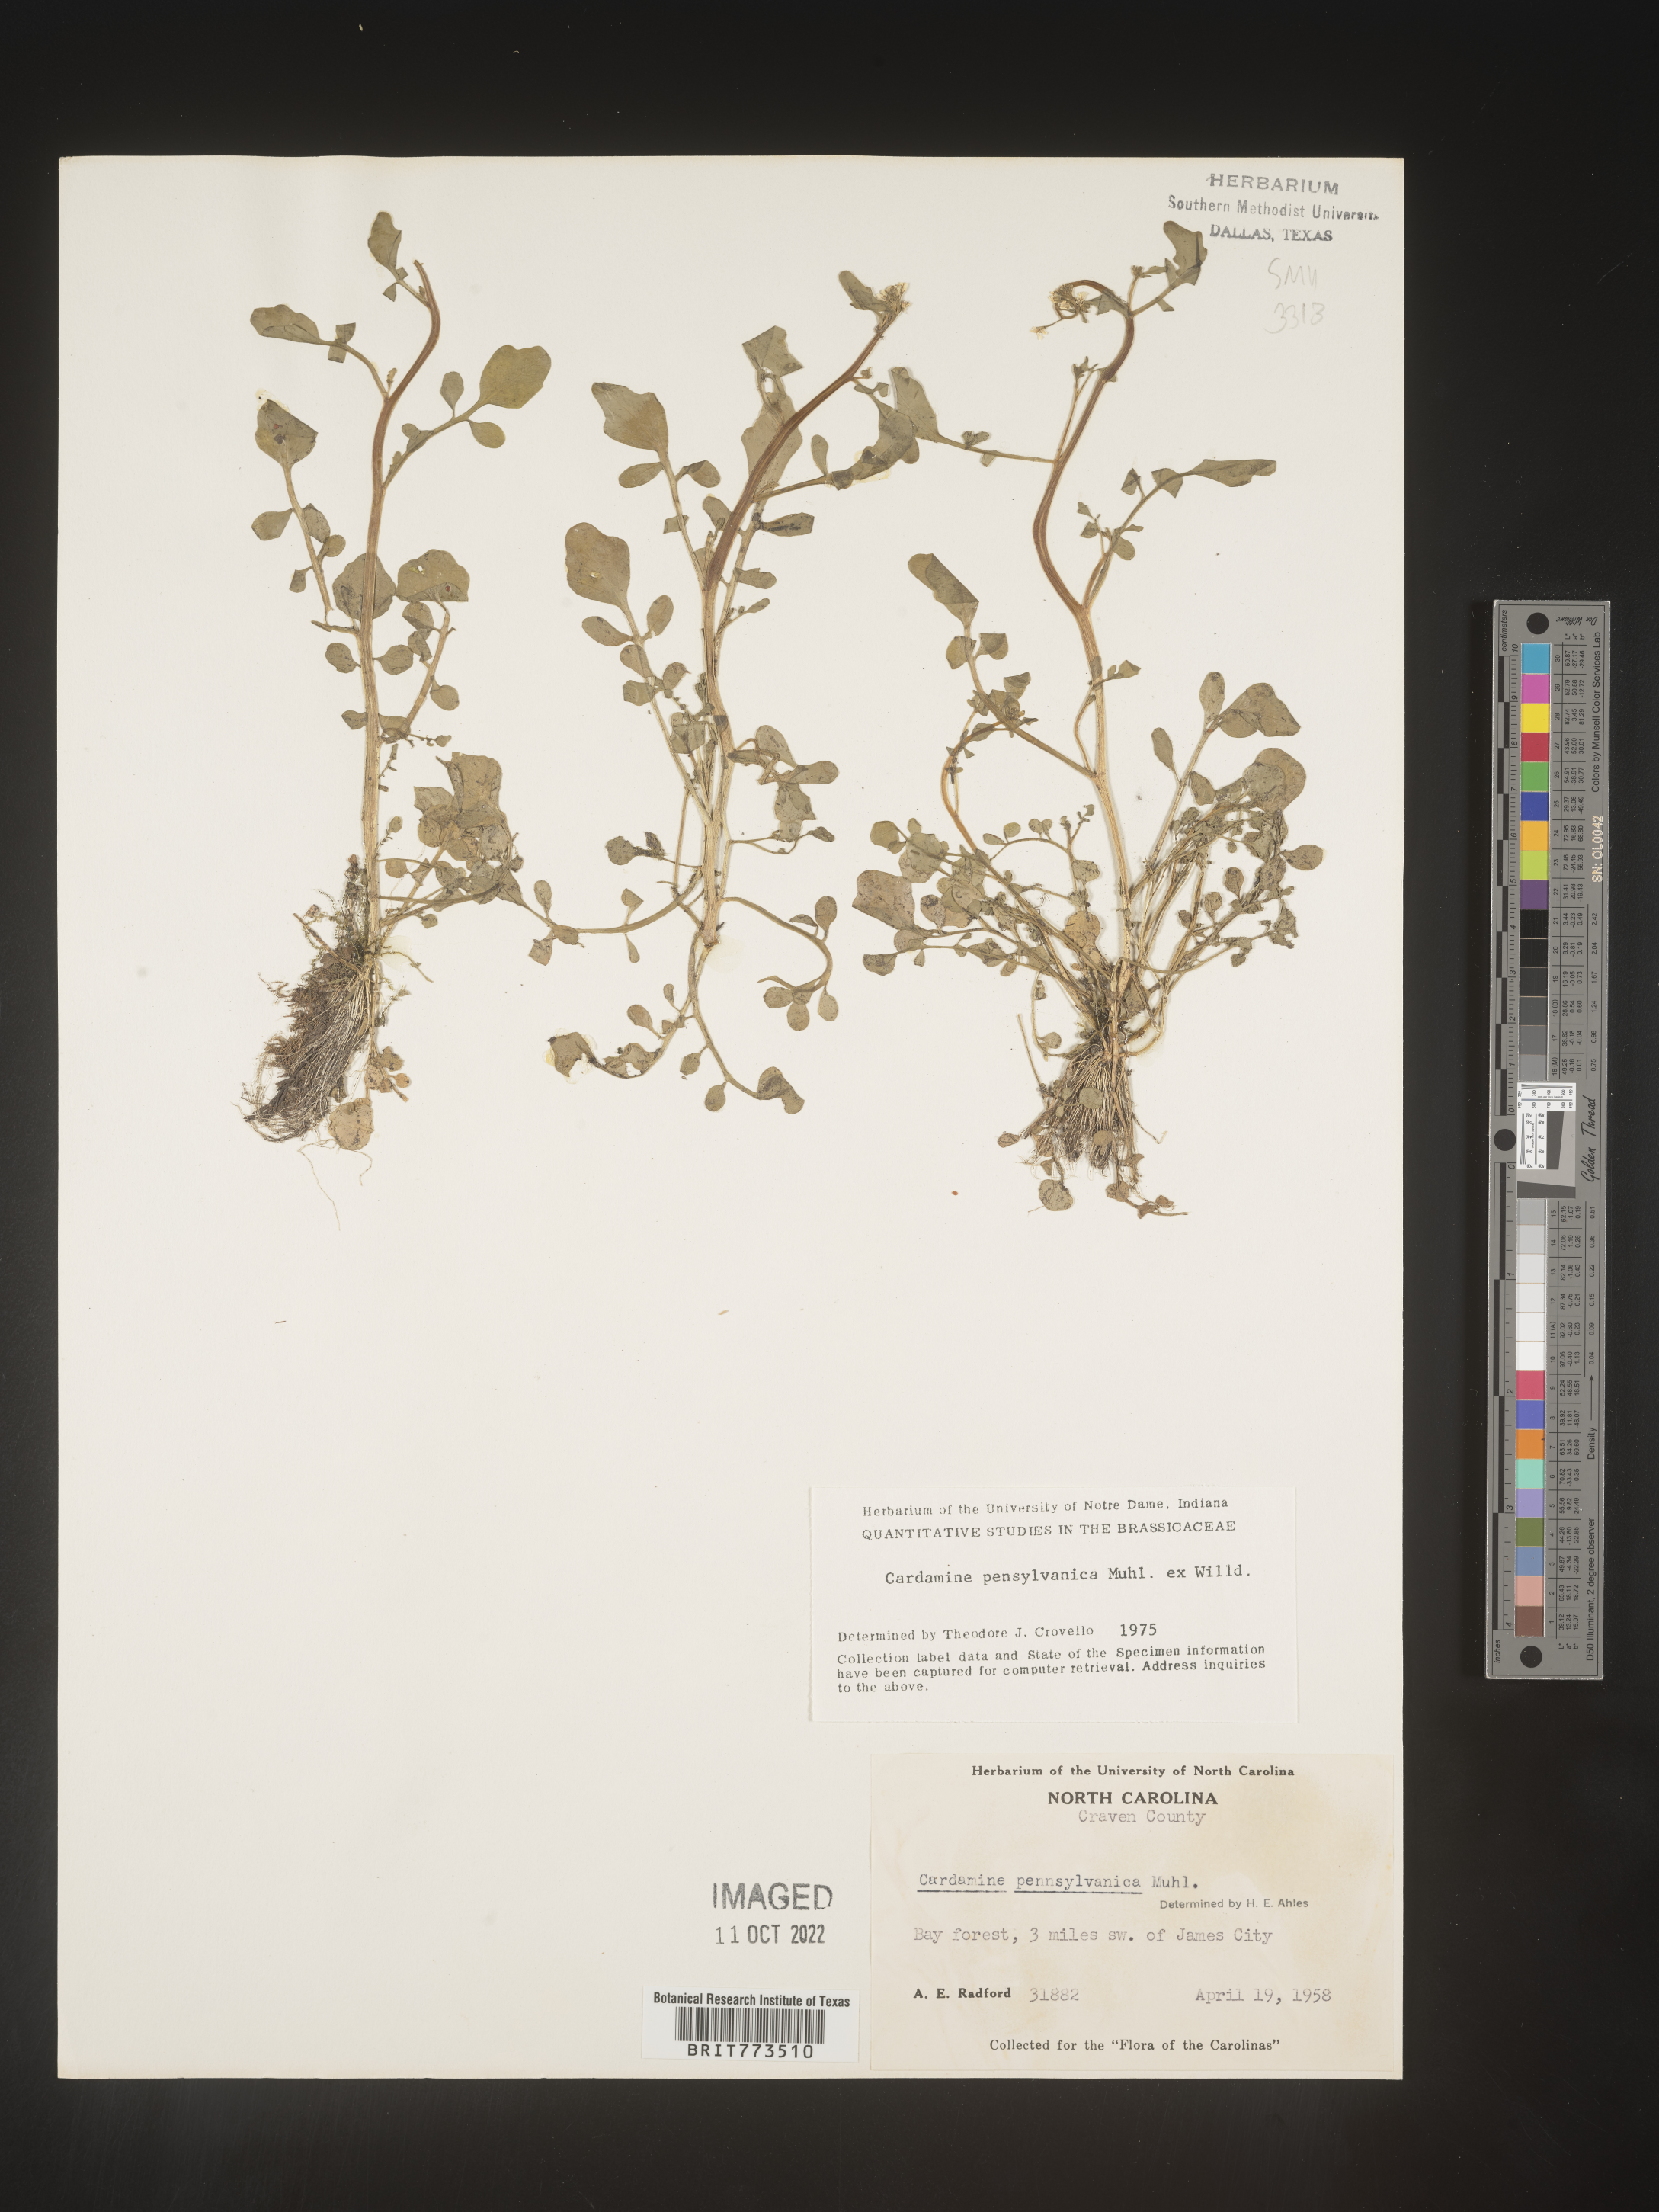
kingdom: Plantae
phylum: Tracheophyta
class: Magnoliopsida
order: Brassicales
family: Brassicaceae
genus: Cardamine
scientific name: Cardamine pensylvanica
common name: Pennsylvania bittercress
